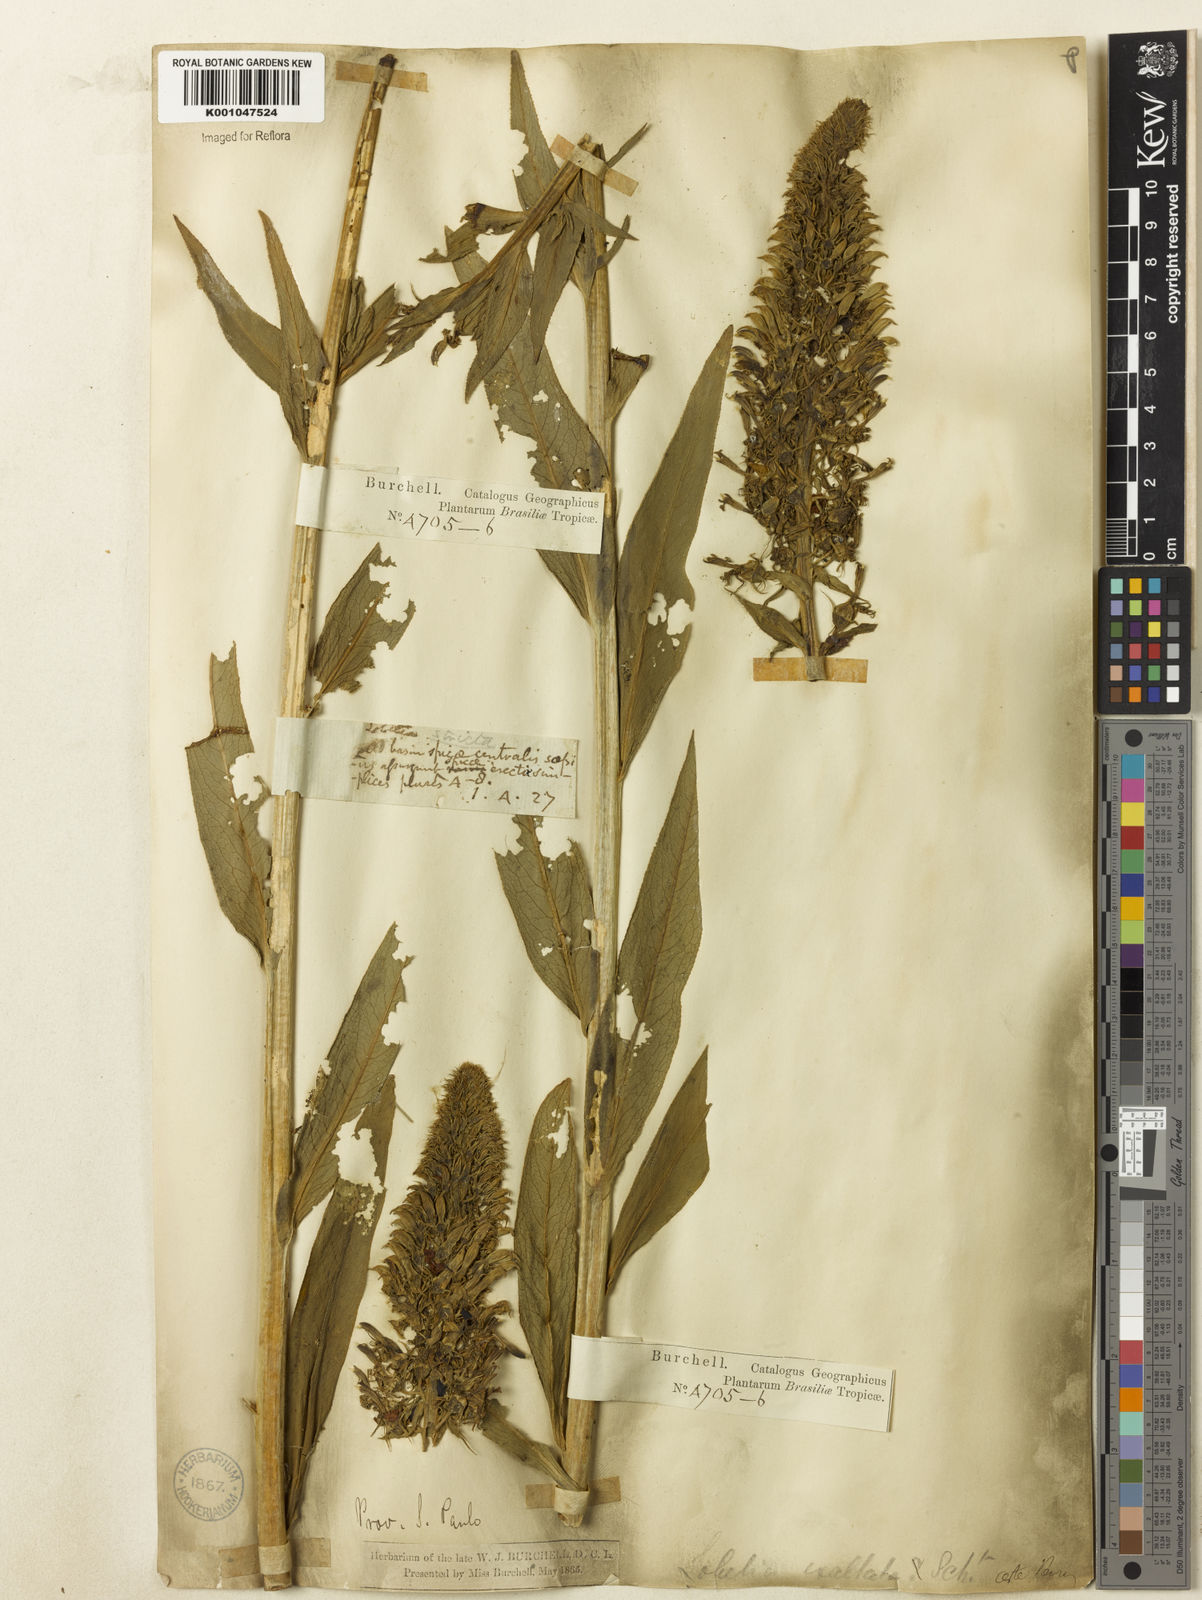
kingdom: Plantae
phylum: Tracheophyta
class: Magnoliopsida
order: Asterales
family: Campanulaceae
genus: Lobelia
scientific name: Lobelia exaltata
